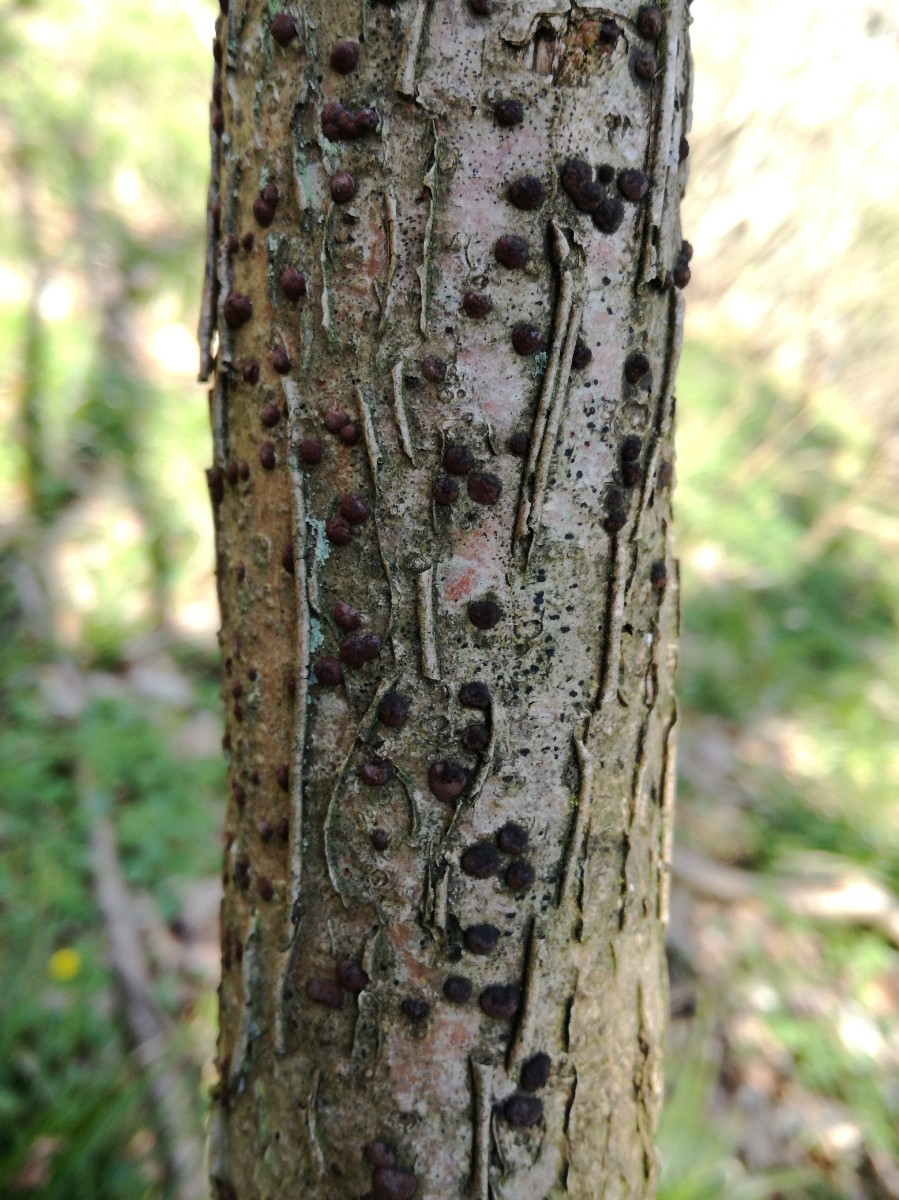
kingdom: Fungi
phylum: Ascomycota
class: Sordariomycetes
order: Xylariales
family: Hypoxylaceae
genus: Hypoxylon
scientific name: Hypoxylon fuscum
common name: kegleformet kulbær
